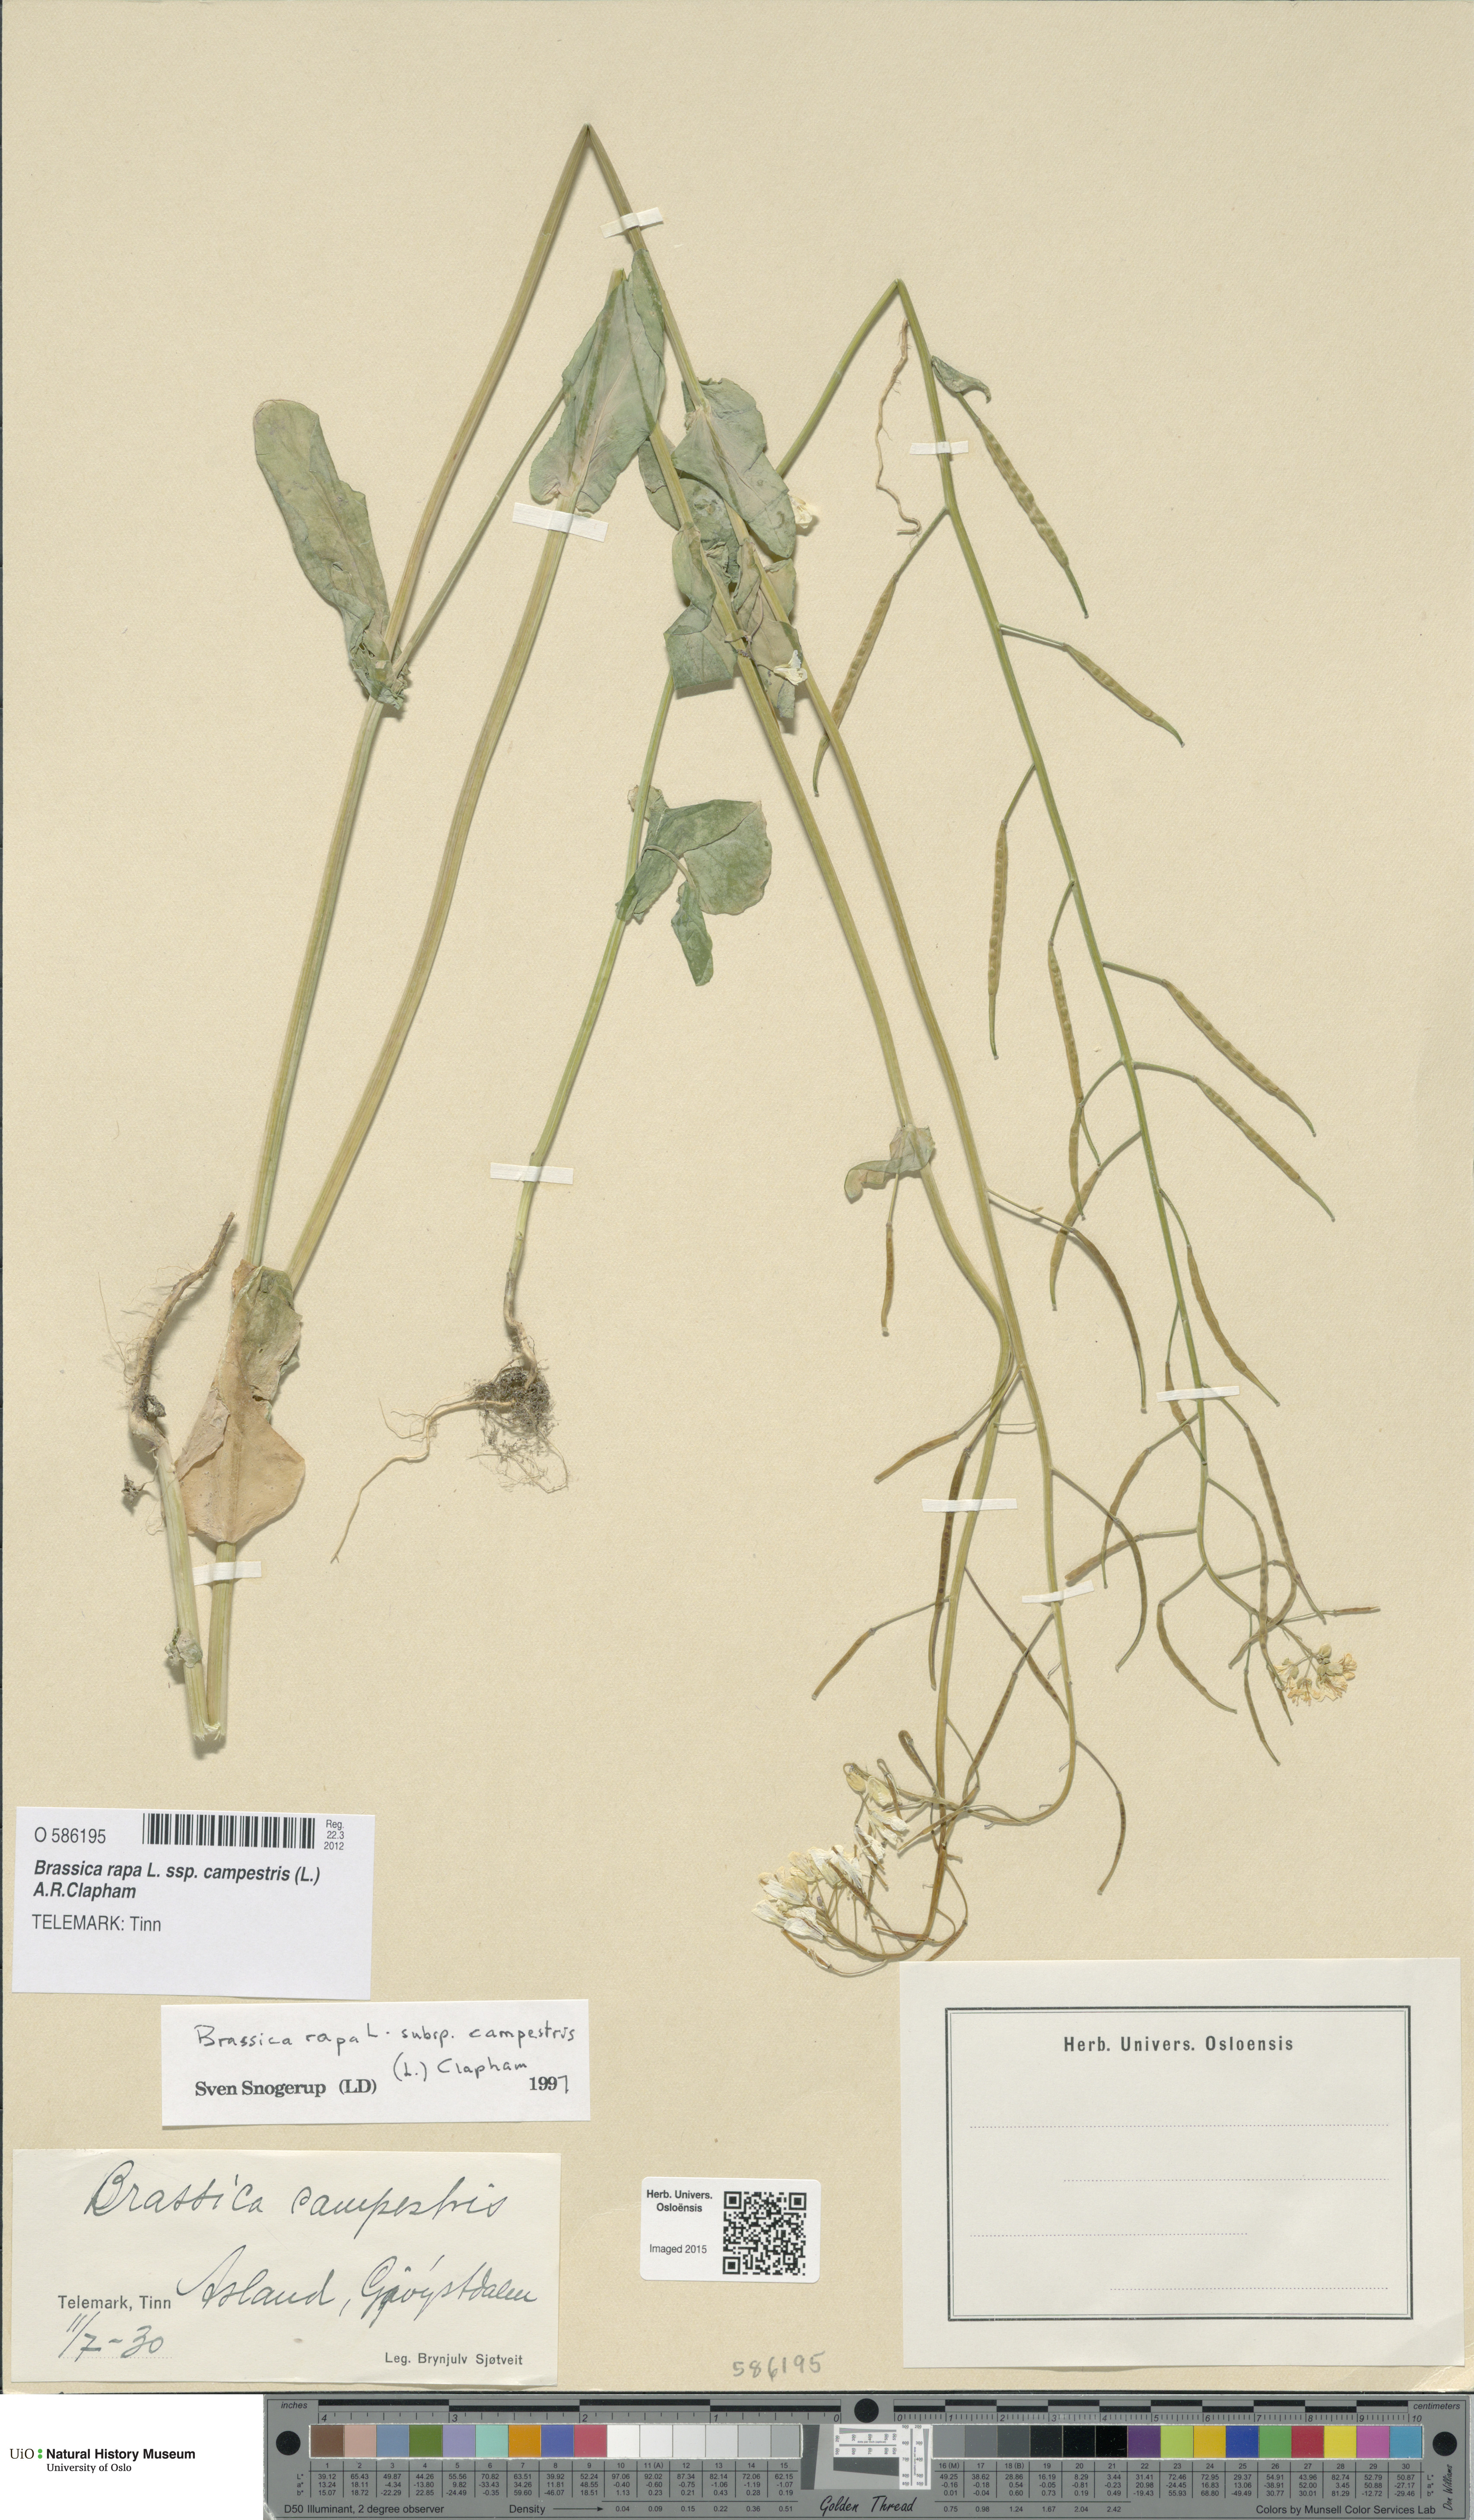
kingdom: Plantae
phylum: Tracheophyta
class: Magnoliopsida
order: Brassicales
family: Brassicaceae
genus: Brassica
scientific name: Brassica rapa
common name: Field mustard
